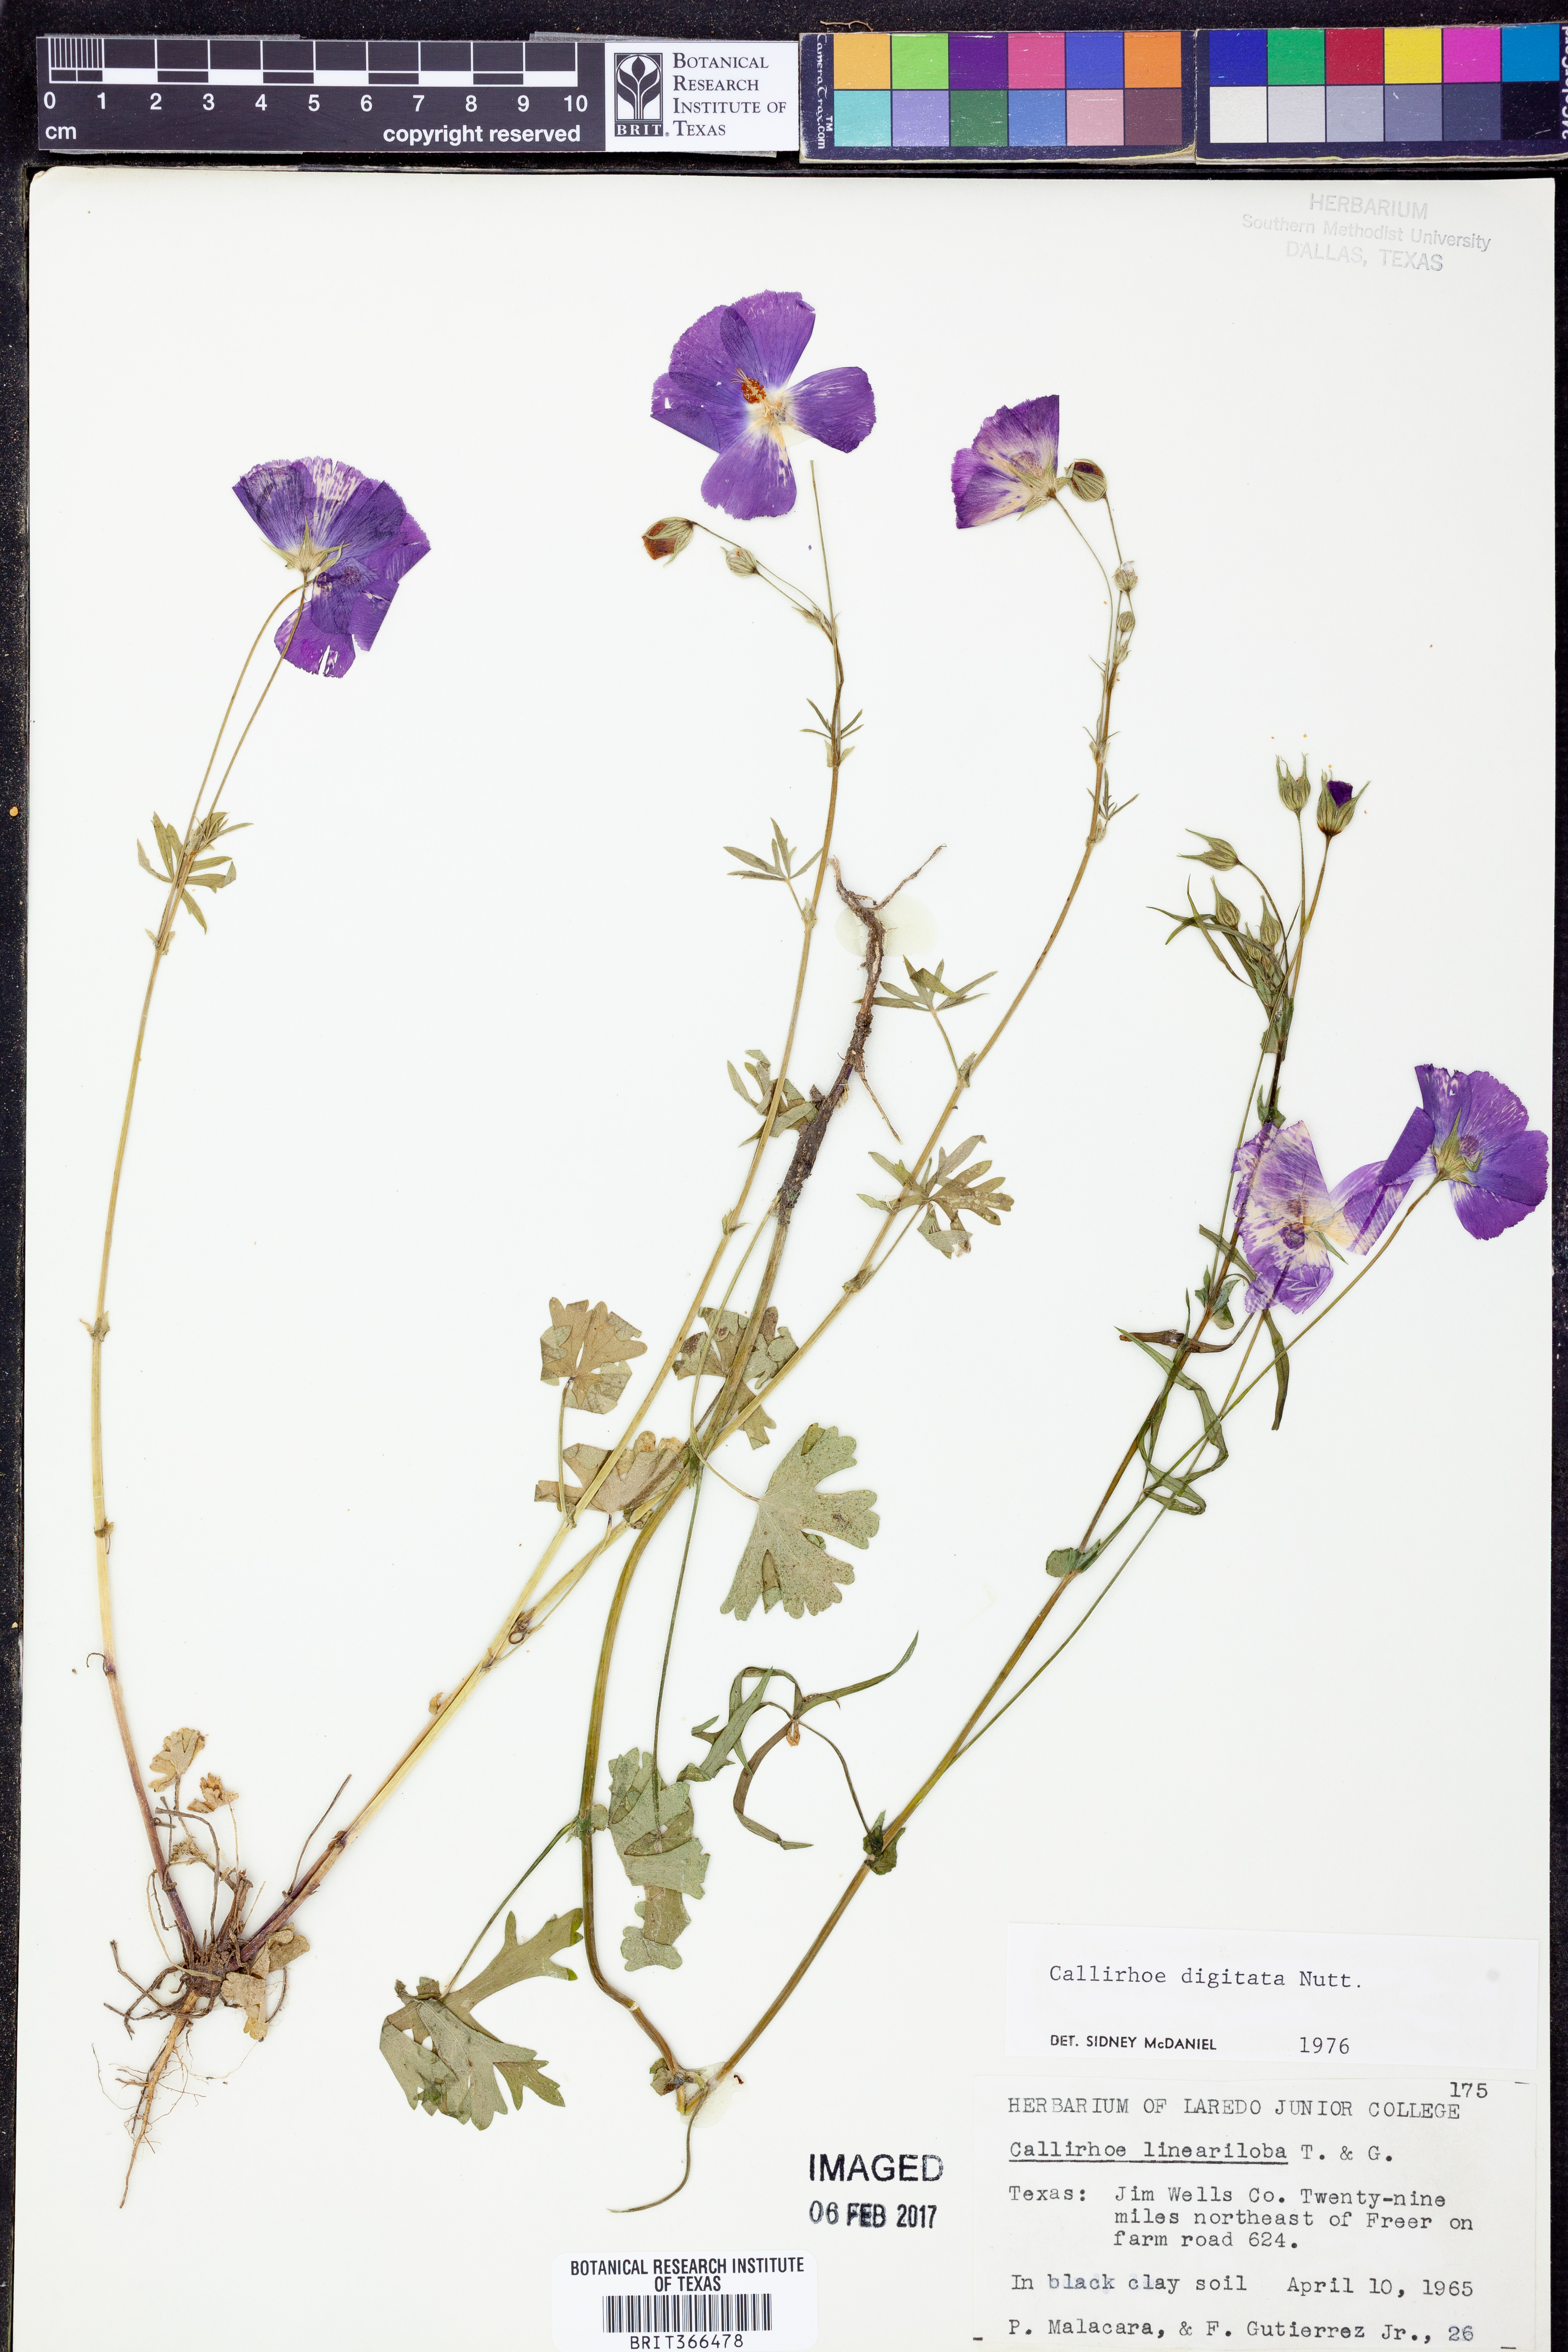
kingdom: Plantae
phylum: Tracheophyta
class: Magnoliopsida
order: Malvales
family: Malvaceae
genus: Callirhoe
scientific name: Callirhoe digitata
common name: Finger poppy-mallow
